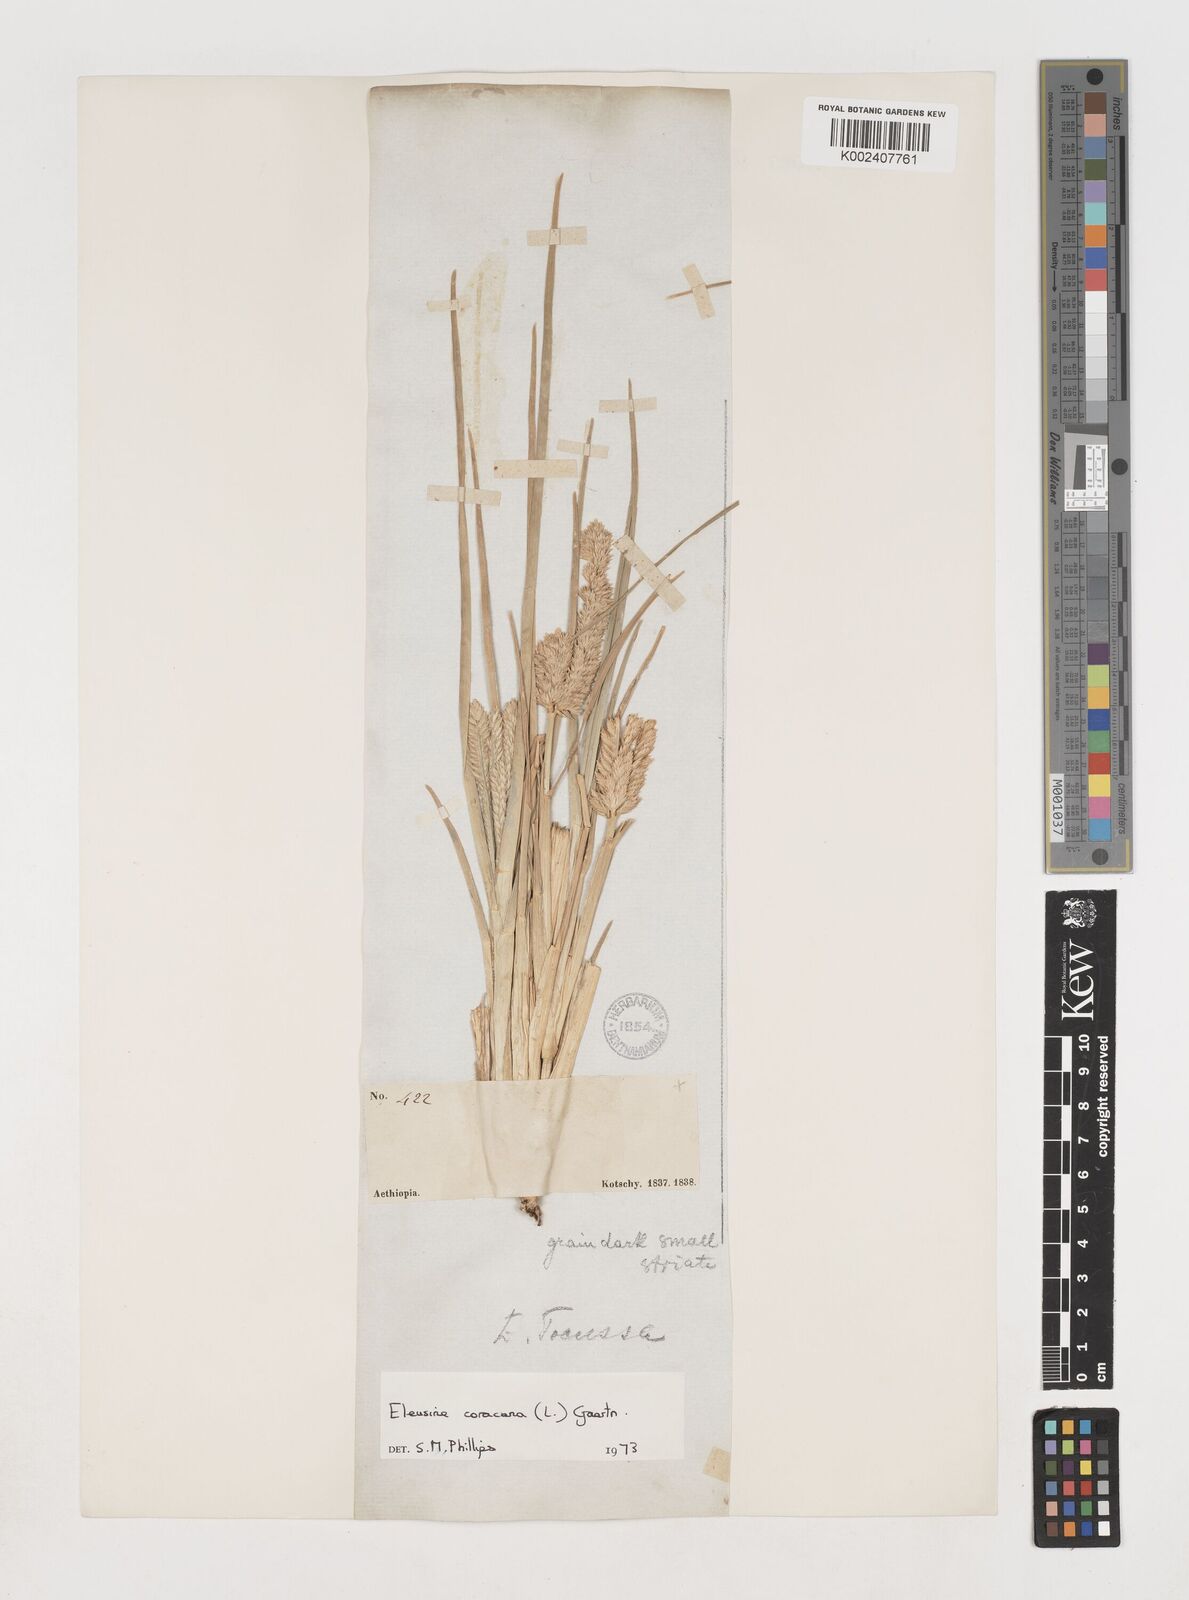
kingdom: Plantae
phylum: Tracheophyta
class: Liliopsida
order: Poales
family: Poaceae
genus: Eleusine
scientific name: Eleusine coracana
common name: Finger millet
